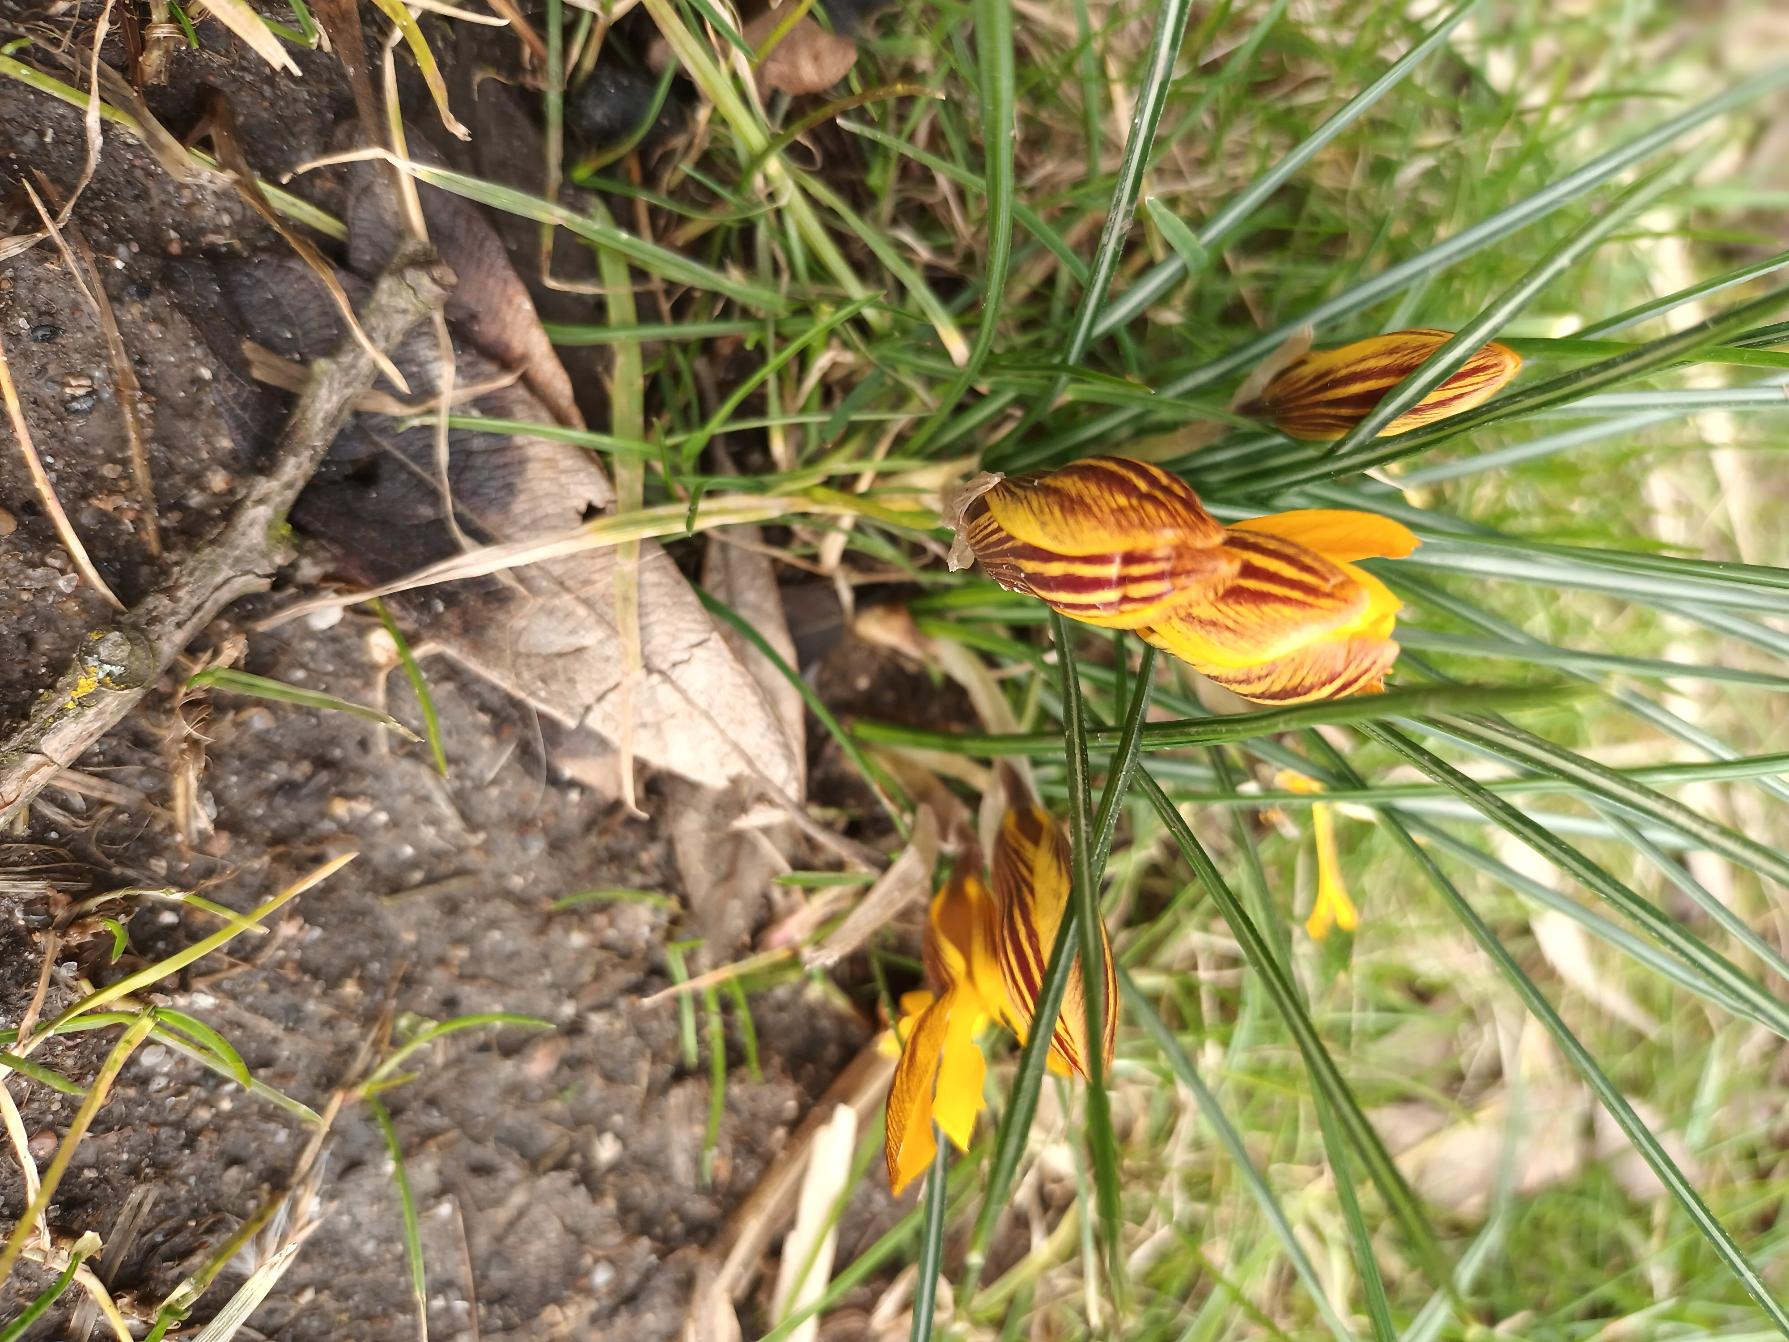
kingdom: Plantae
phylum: Tracheophyta
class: Liliopsida
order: Asparagales
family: Iridaceae
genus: Crocus
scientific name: Crocus chrysanthus
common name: Skede-krokus
